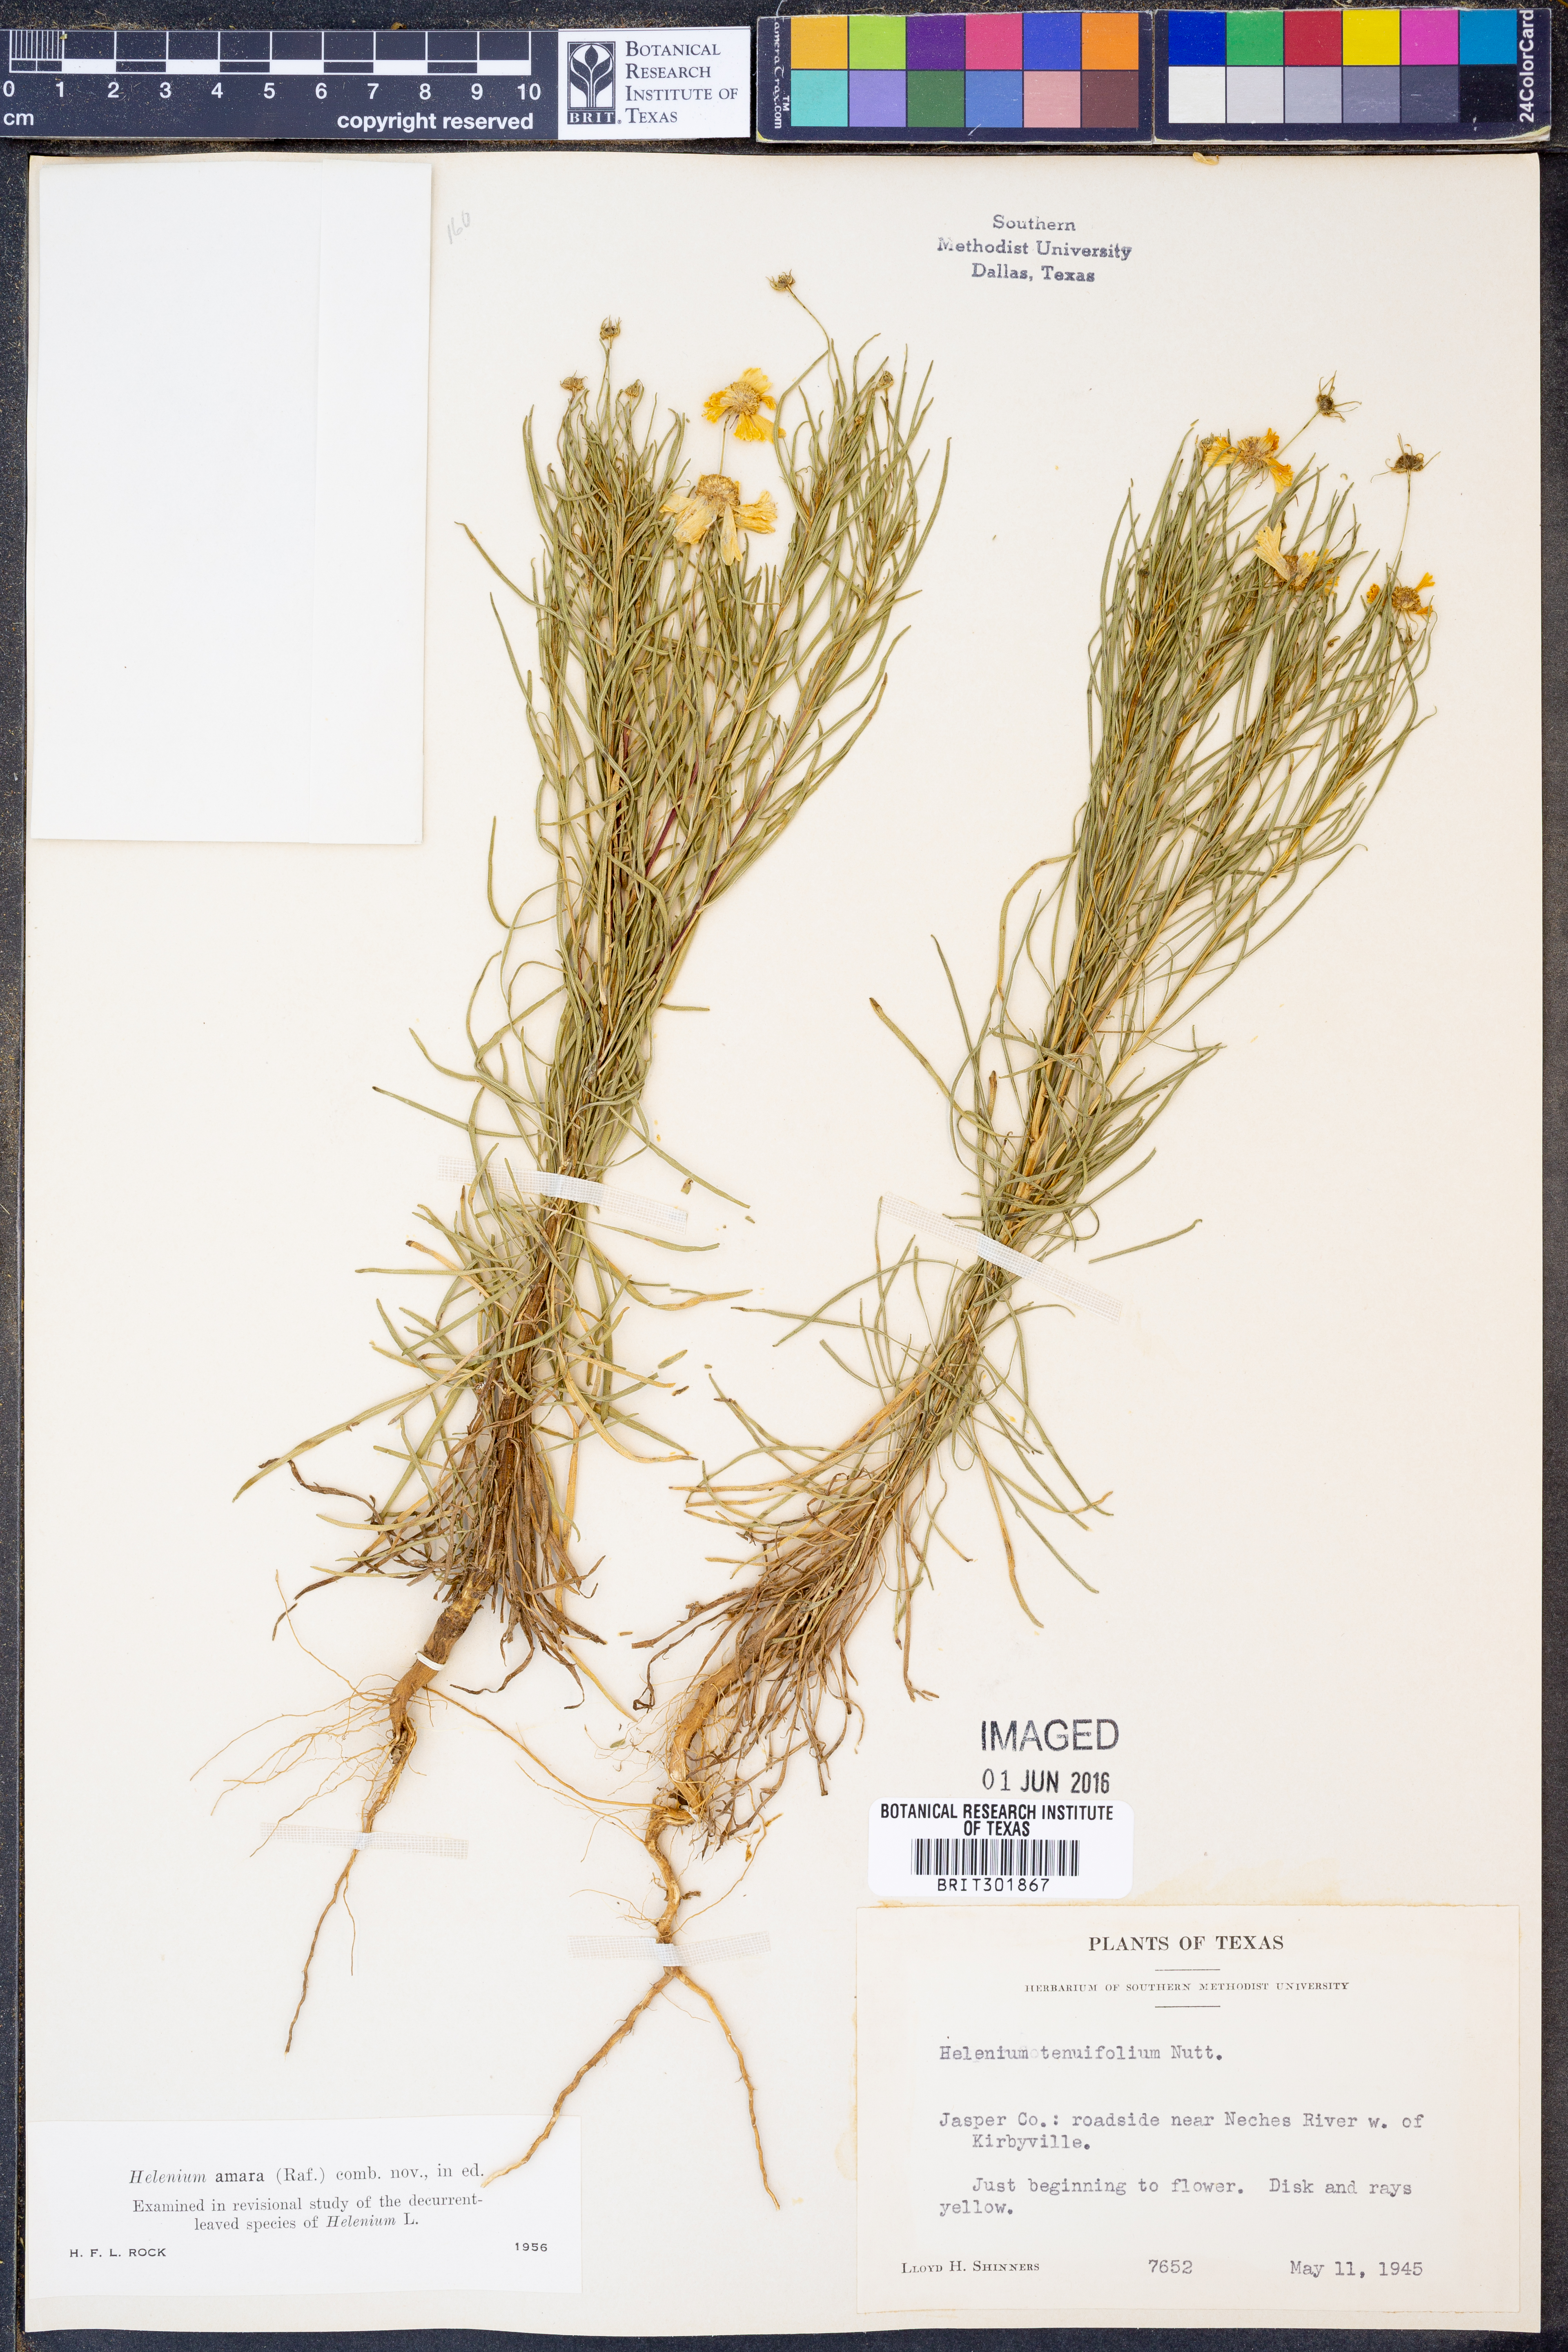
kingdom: Plantae
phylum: Tracheophyta
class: Magnoliopsida
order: Asterales
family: Asteraceae
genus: Helenium
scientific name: Helenium amarum
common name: Bitter sneezeweed
